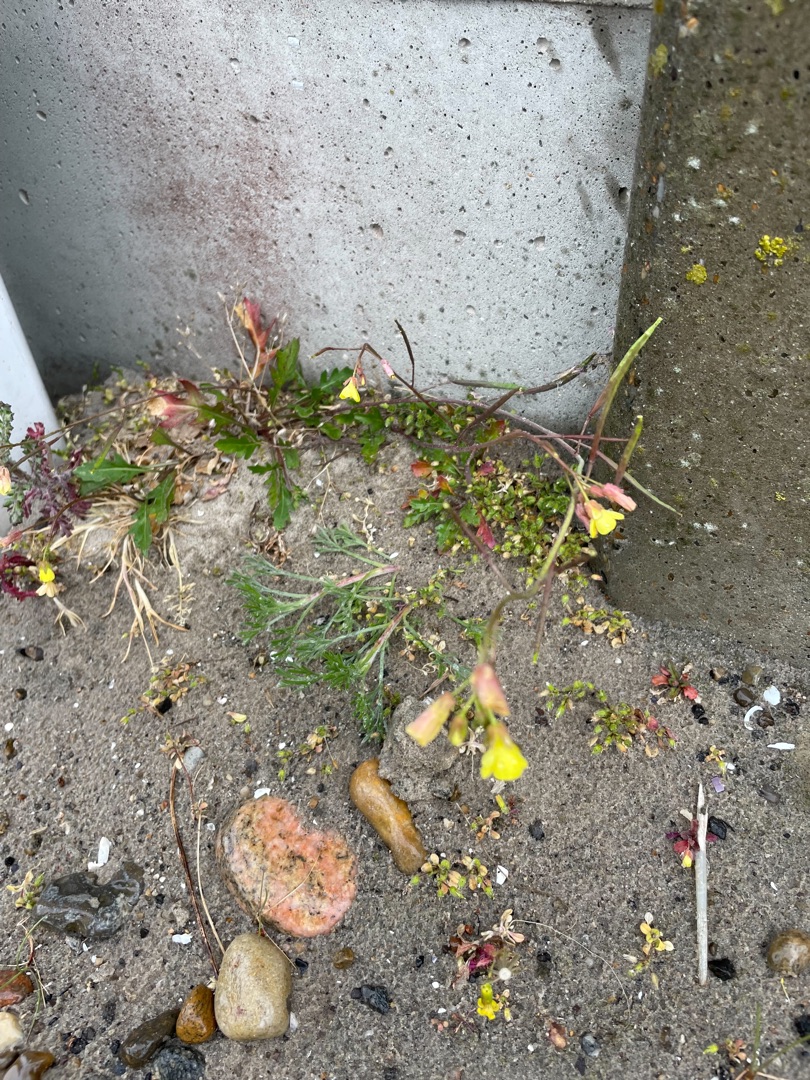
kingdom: Plantae
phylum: Tracheophyta
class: Magnoliopsida
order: Brassicales
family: Brassicaceae
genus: Diplotaxis
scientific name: Diplotaxis muralis
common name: Mursennep
